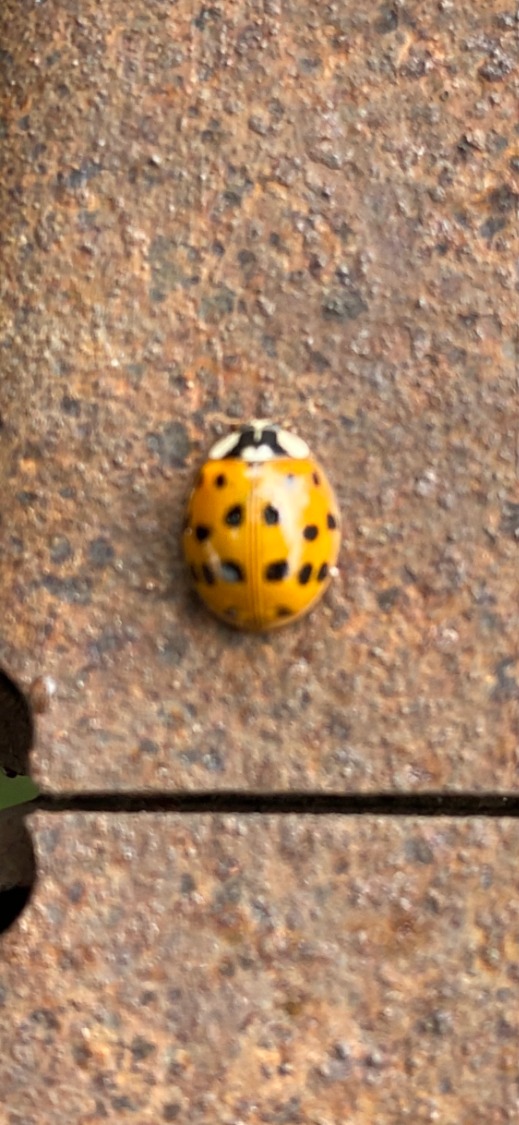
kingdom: Animalia
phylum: Arthropoda
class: Insecta
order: Coleoptera
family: Coccinellidae
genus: Harmonia
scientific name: Harmonia axyridis
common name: Harlekinmariehøne
